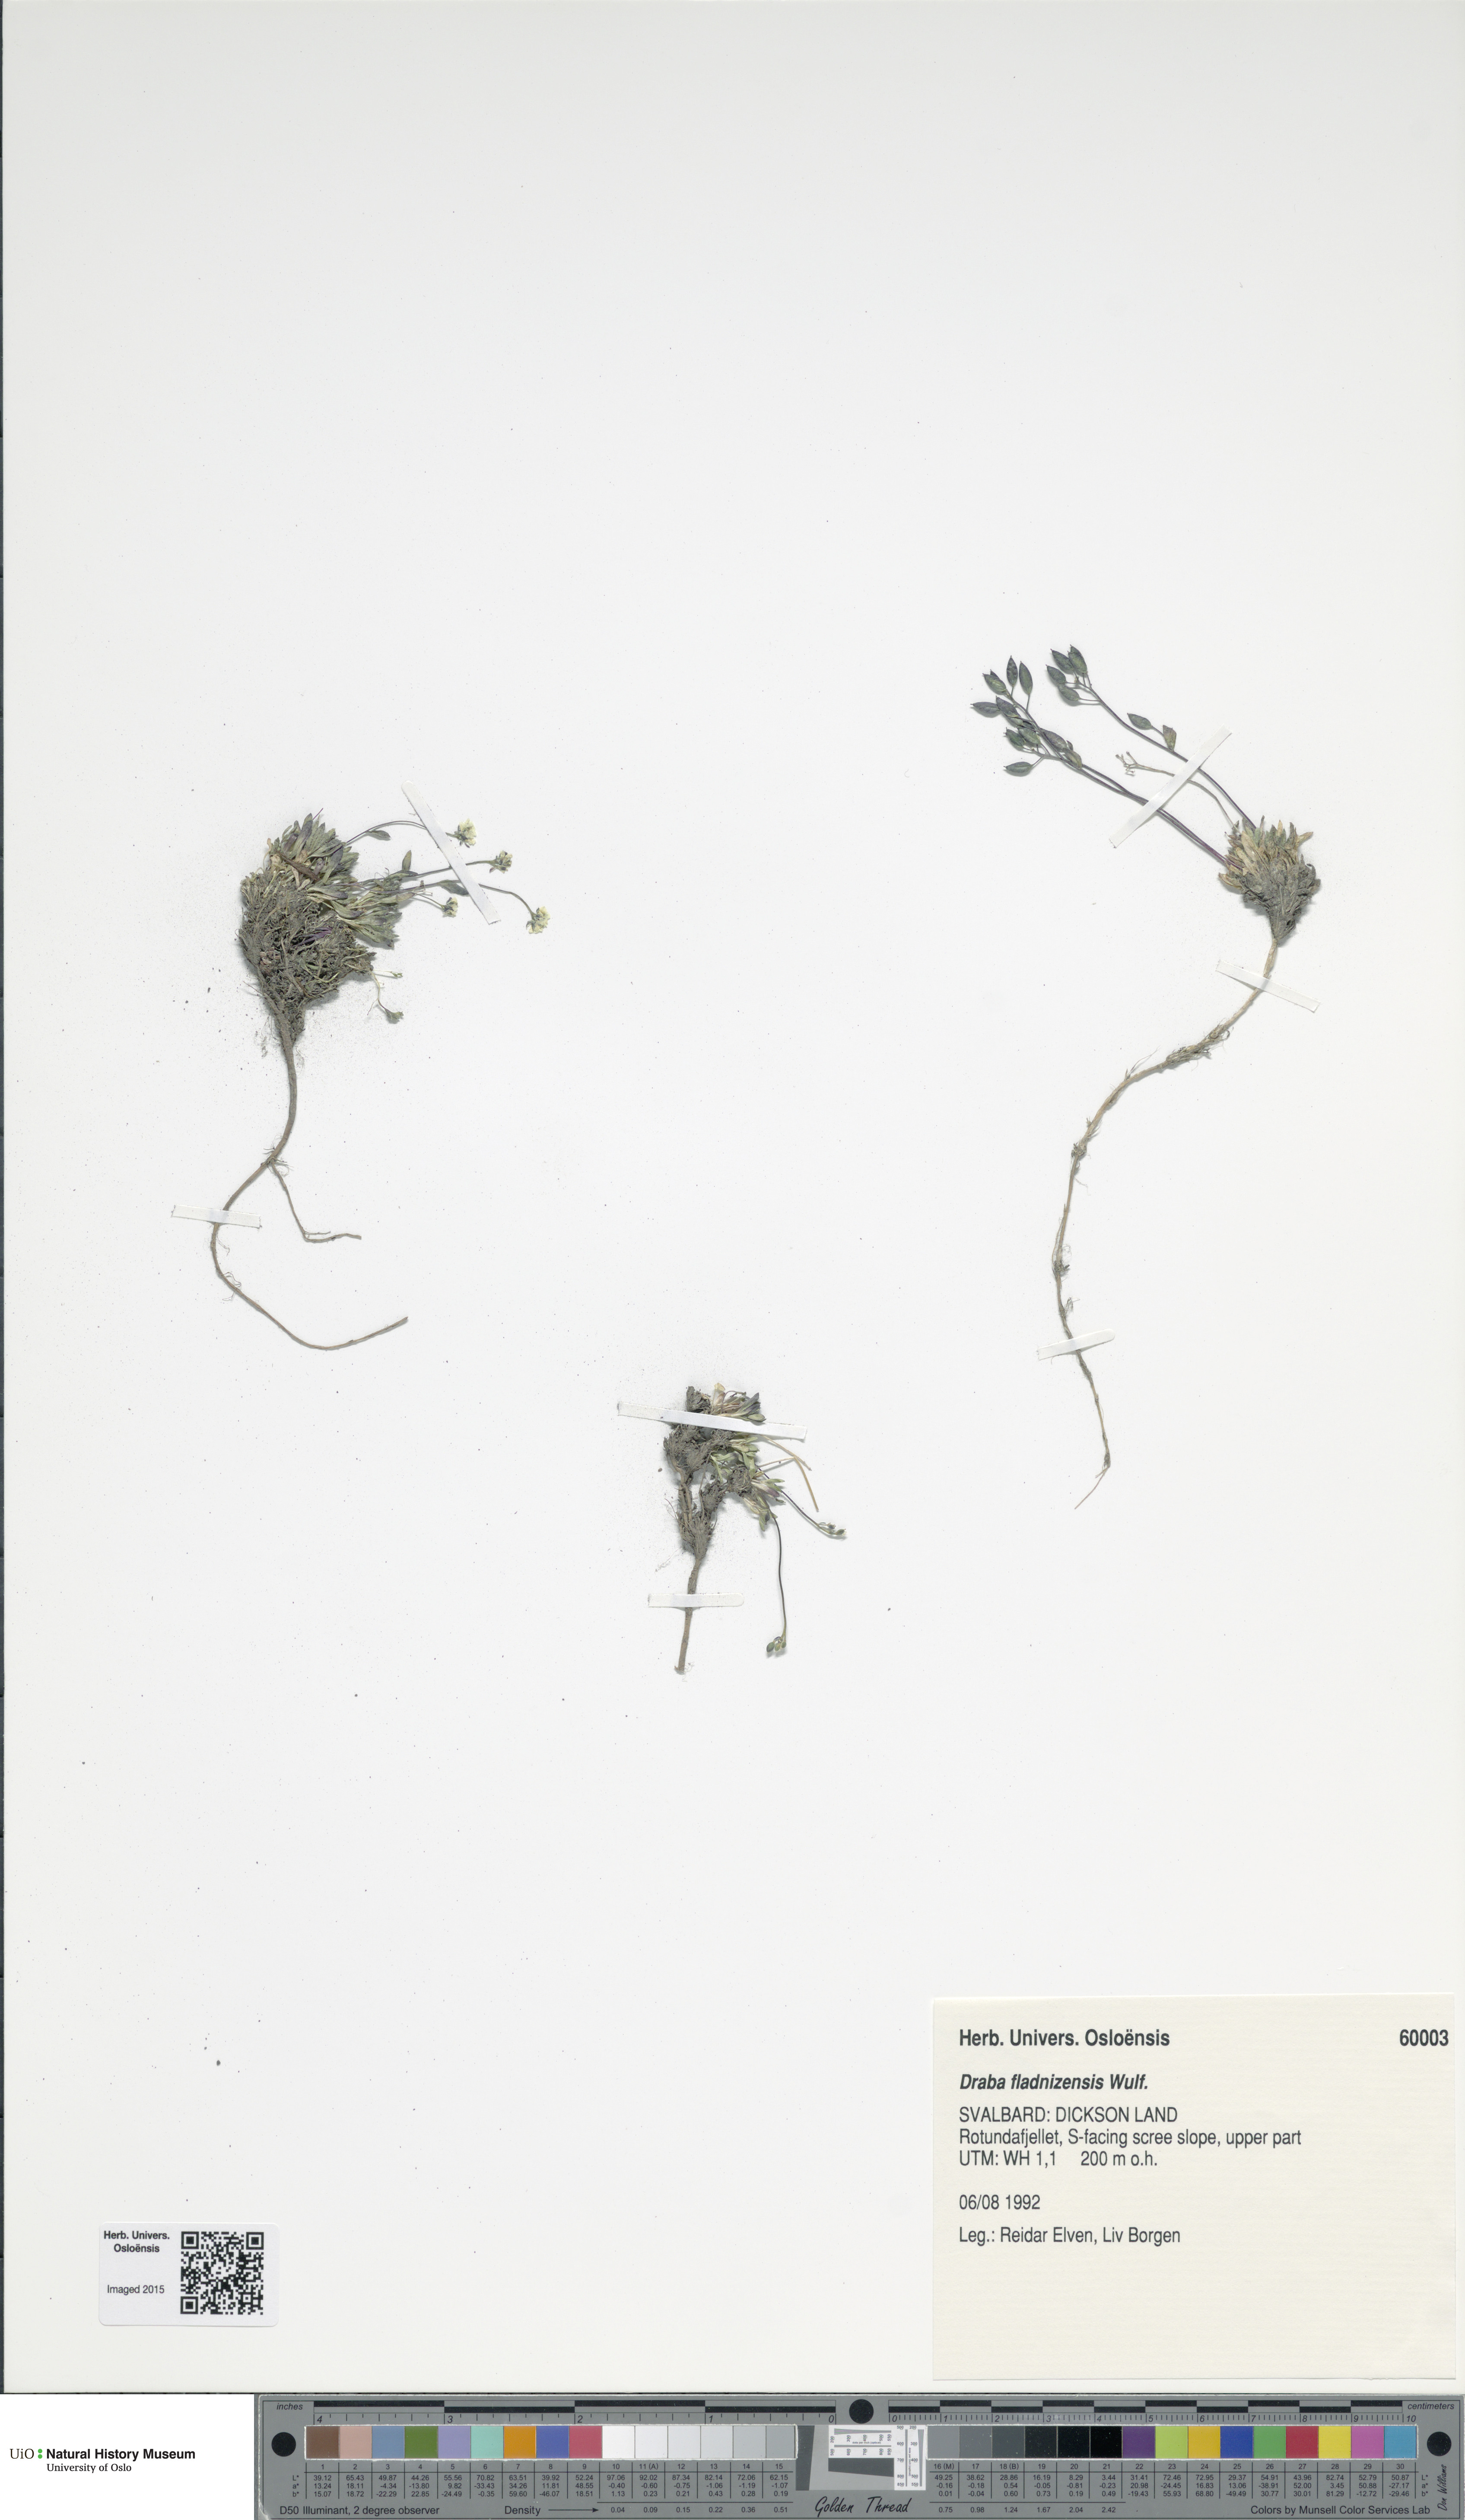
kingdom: Plantae
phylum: Tracheophyta
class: Magnoliopsida
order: Brassicales
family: Brassicaceae
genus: Draba
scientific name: Draba fladnizensis
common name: Austrian draba
